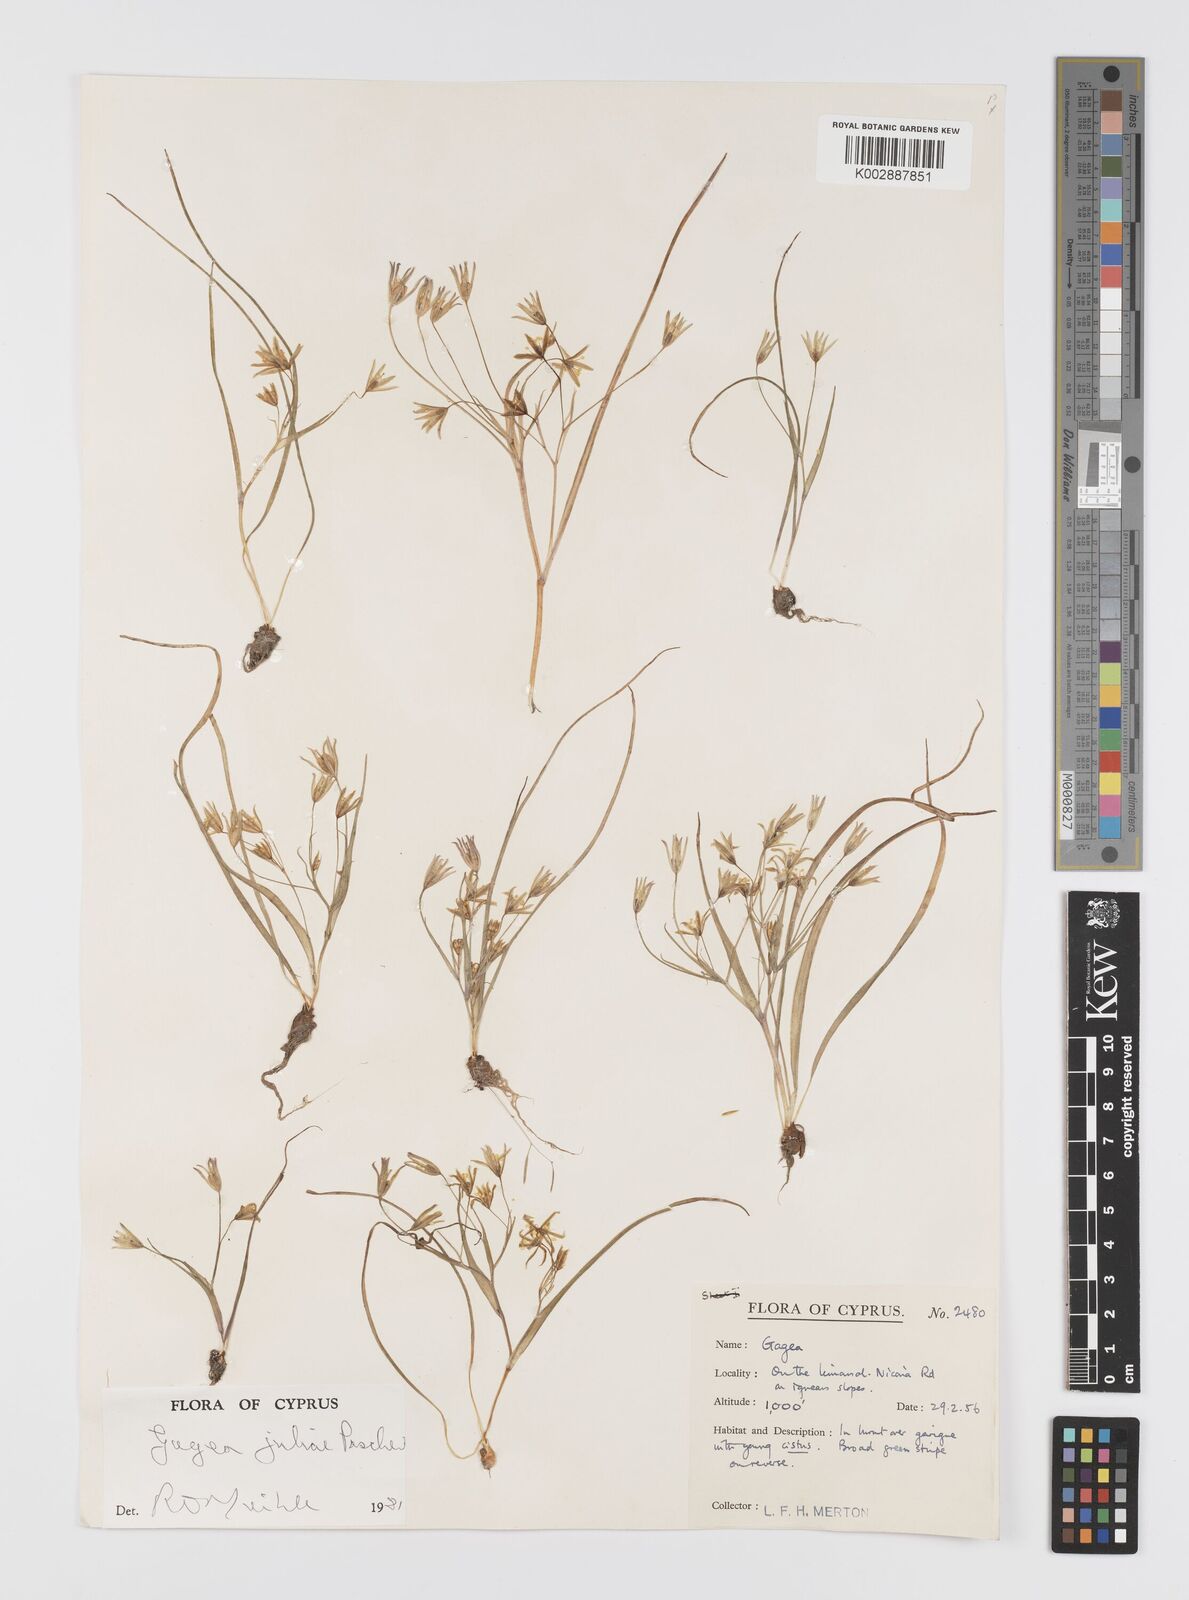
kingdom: Plantae
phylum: Tracheophyta
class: Liliopsida
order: Liliales
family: Liliaceae
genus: Gagea
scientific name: Gagea juliae
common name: Julia’s gagea
